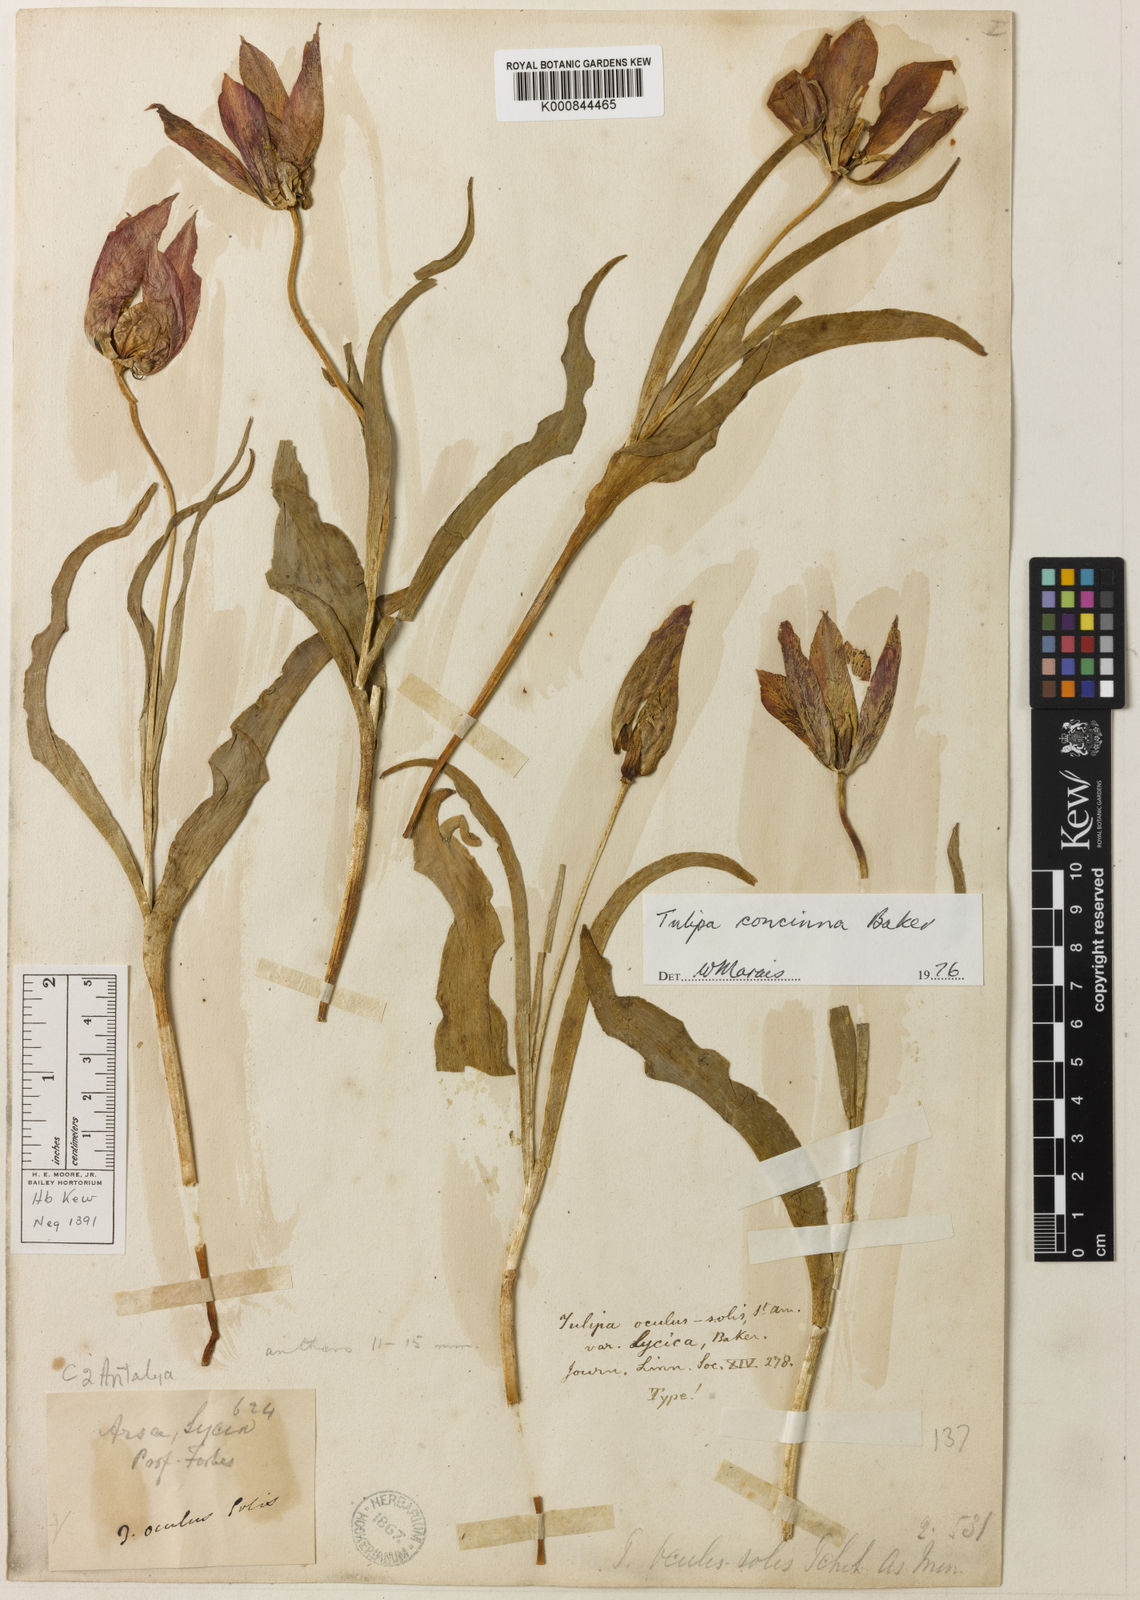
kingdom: Plantae
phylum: Tracheophyta
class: Liliopsida
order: Liliales
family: Liliaceae
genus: Tulipa
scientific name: Tulipa foliosa
